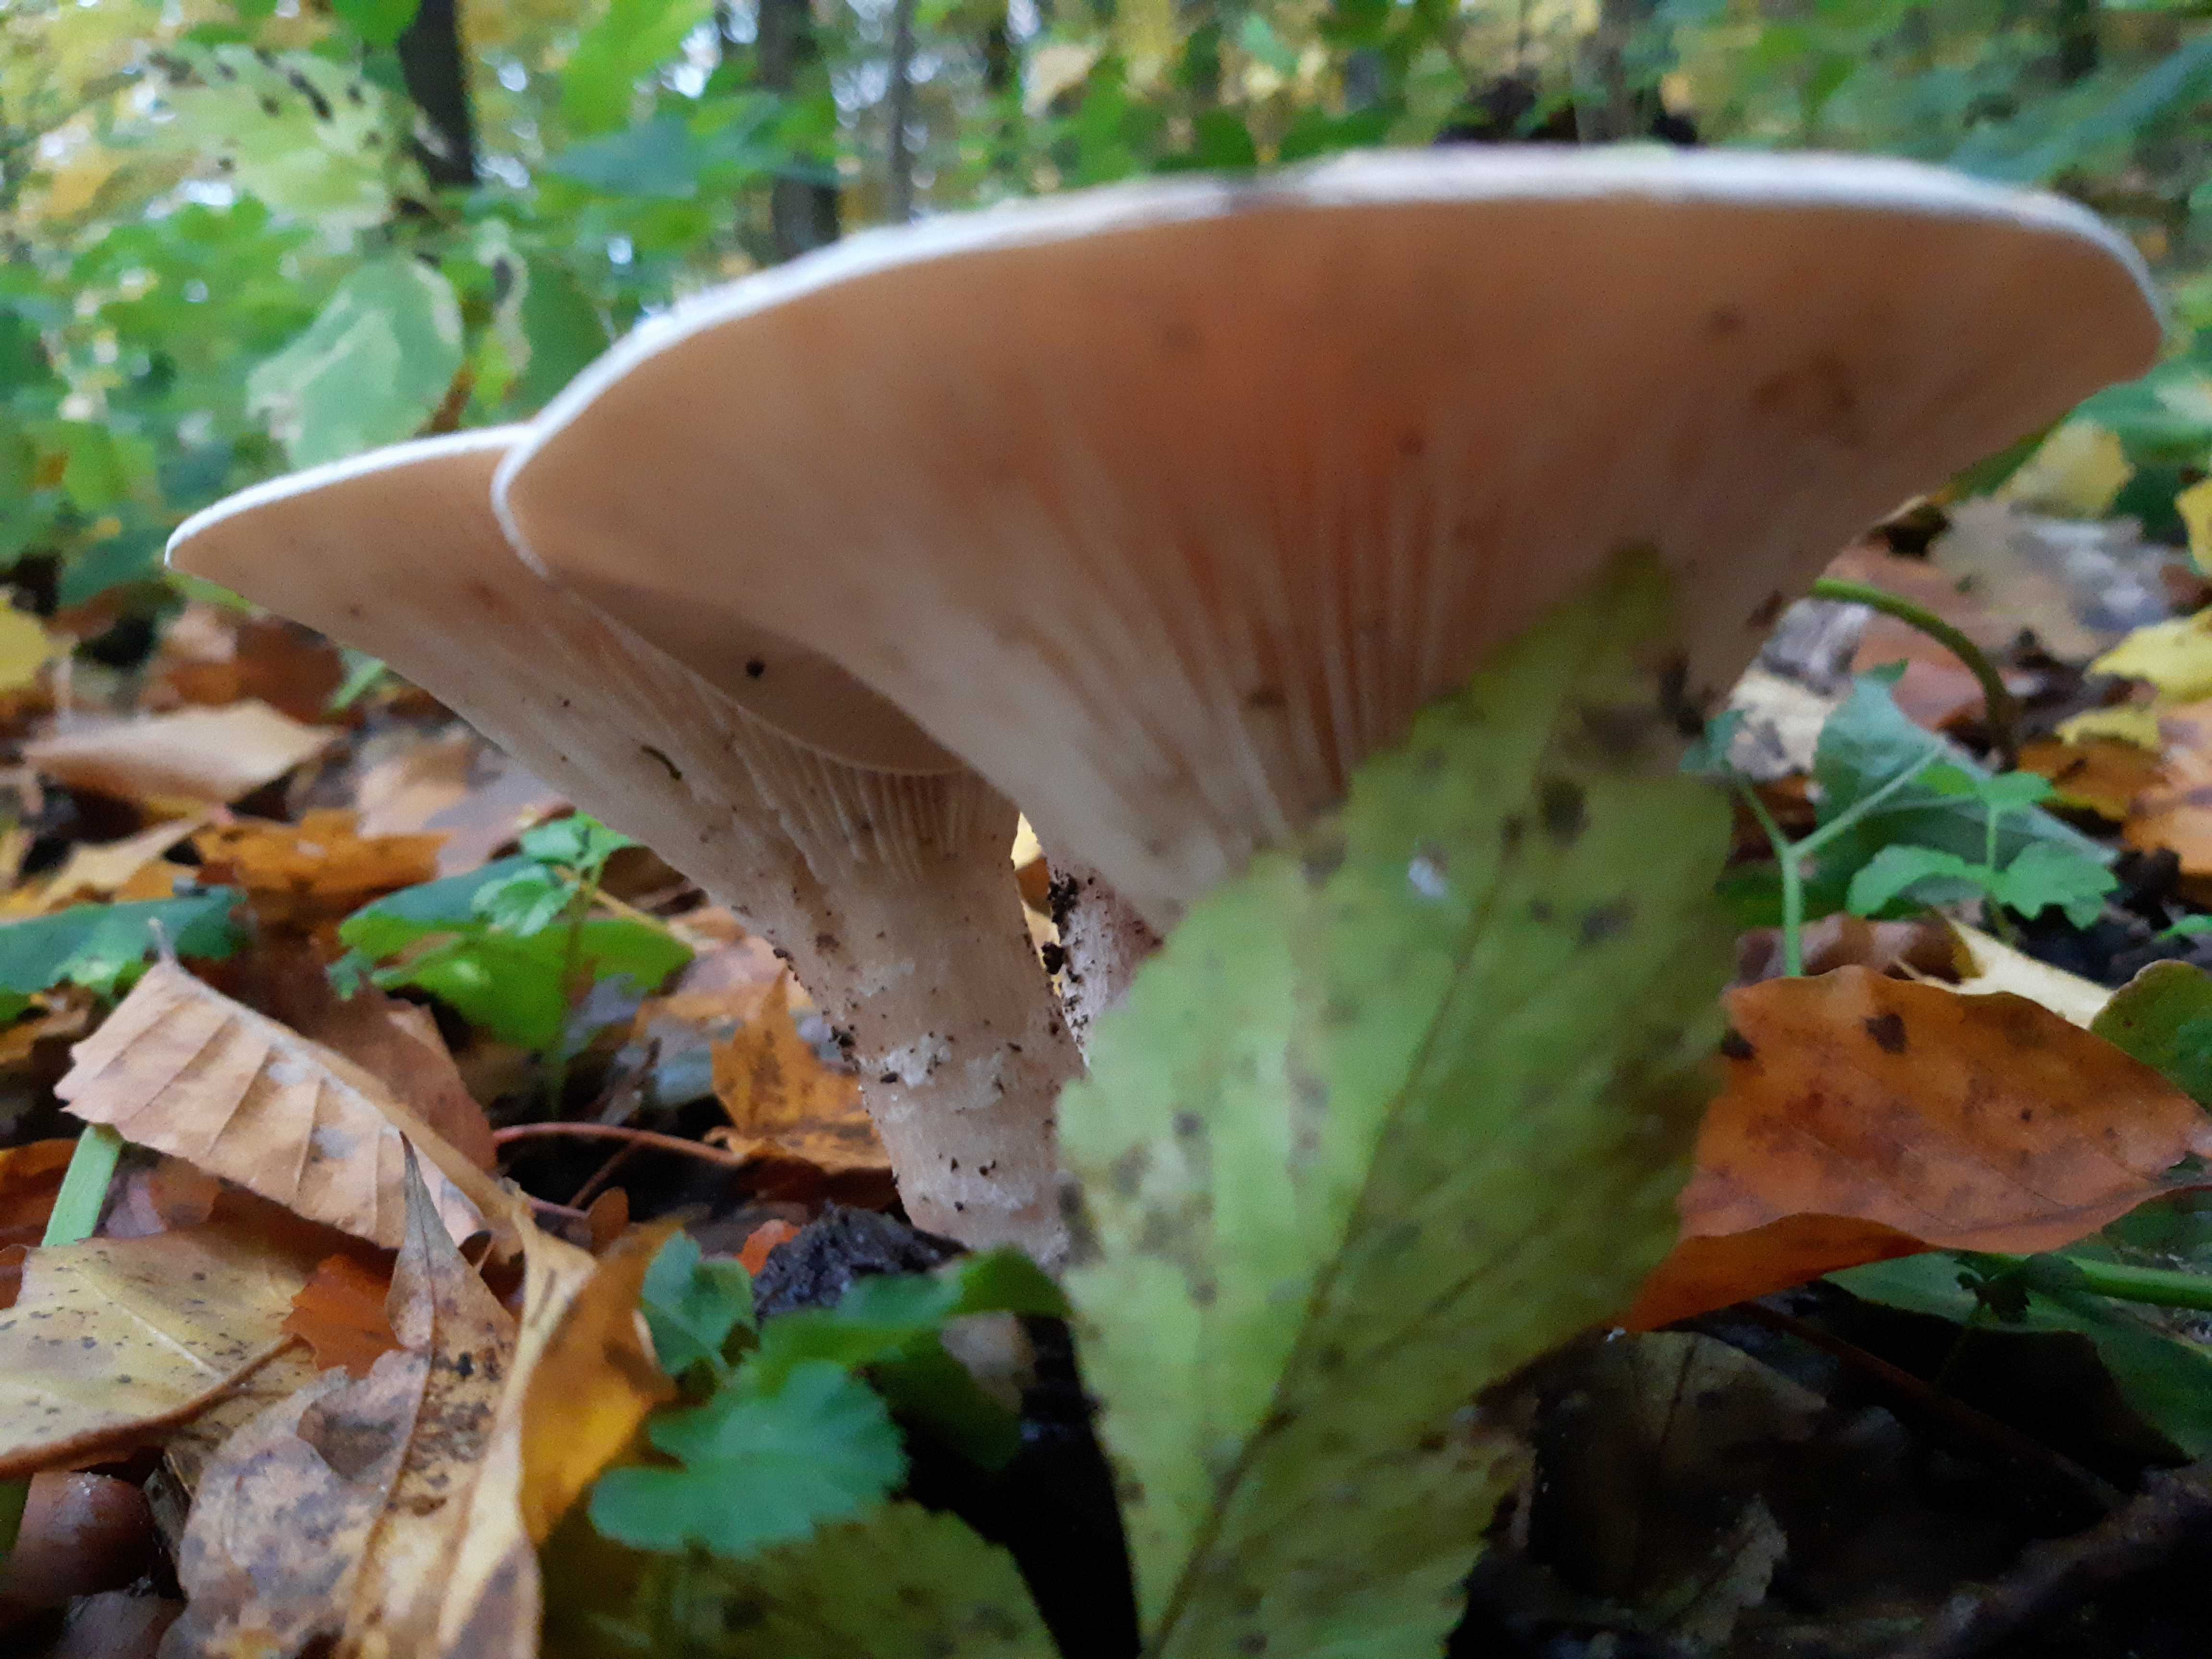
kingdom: Fungi
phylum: Basidiomycota
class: Agaricomycetes
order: Agaricales
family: Tricholomataceae
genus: Infundibulicybe
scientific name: Infundibulicybe geotropa
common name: stor tragthat
